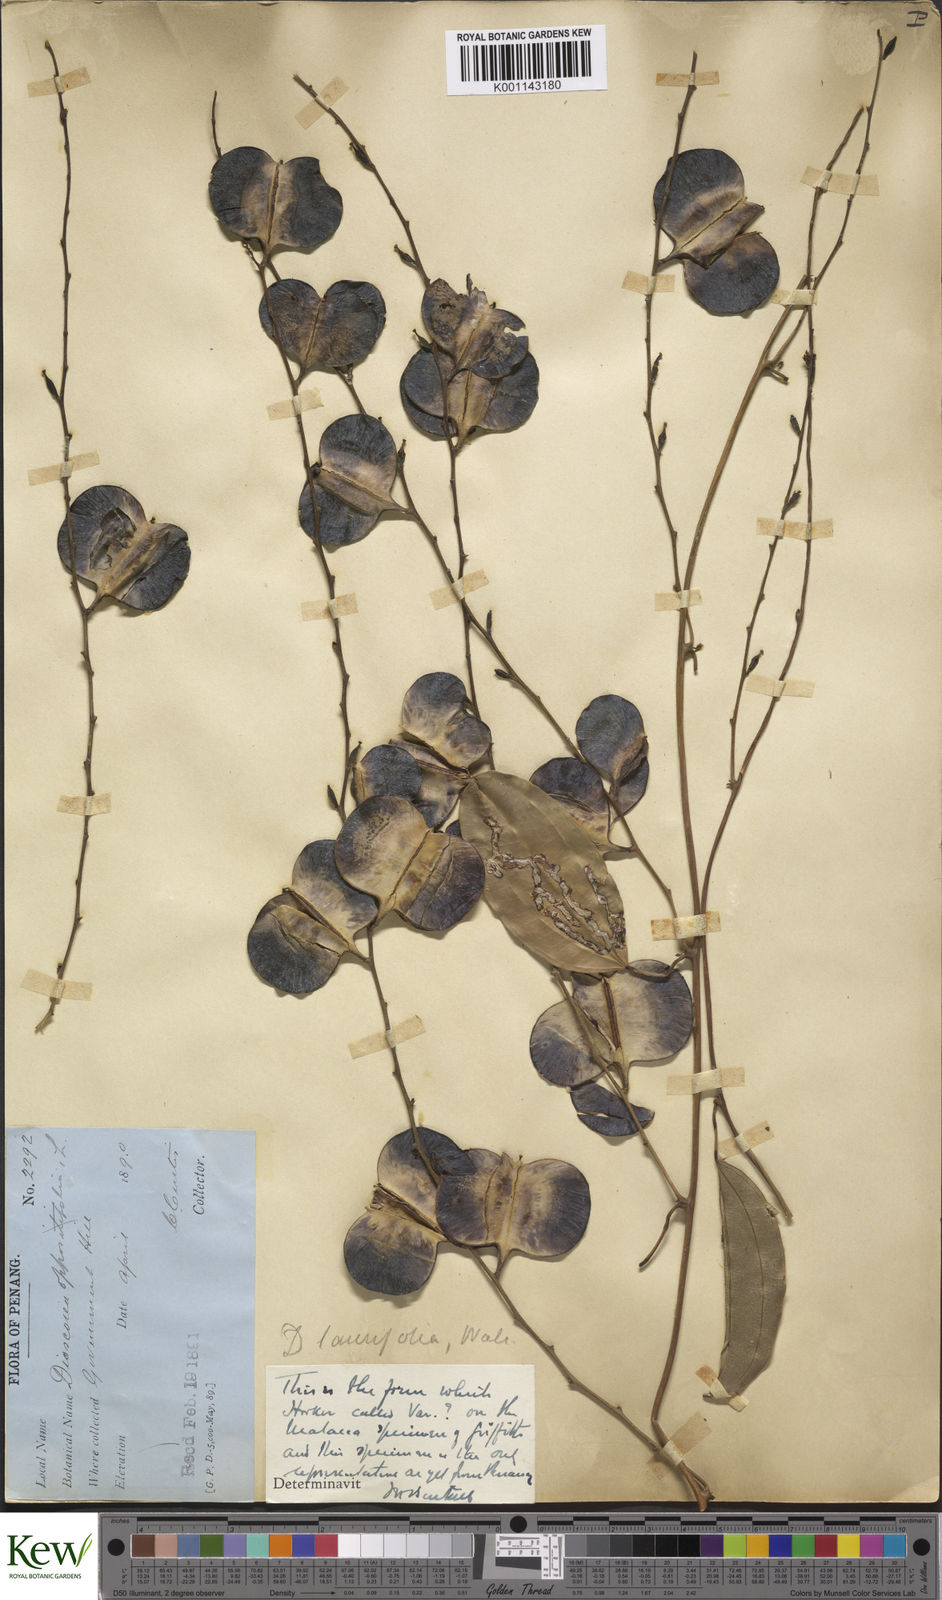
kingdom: Plantae
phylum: Tracheophyta
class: Liliopsida
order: Dioscoreales
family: Dioscoreaceae
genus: Dioscorea
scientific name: Dioscorea laurifolia
